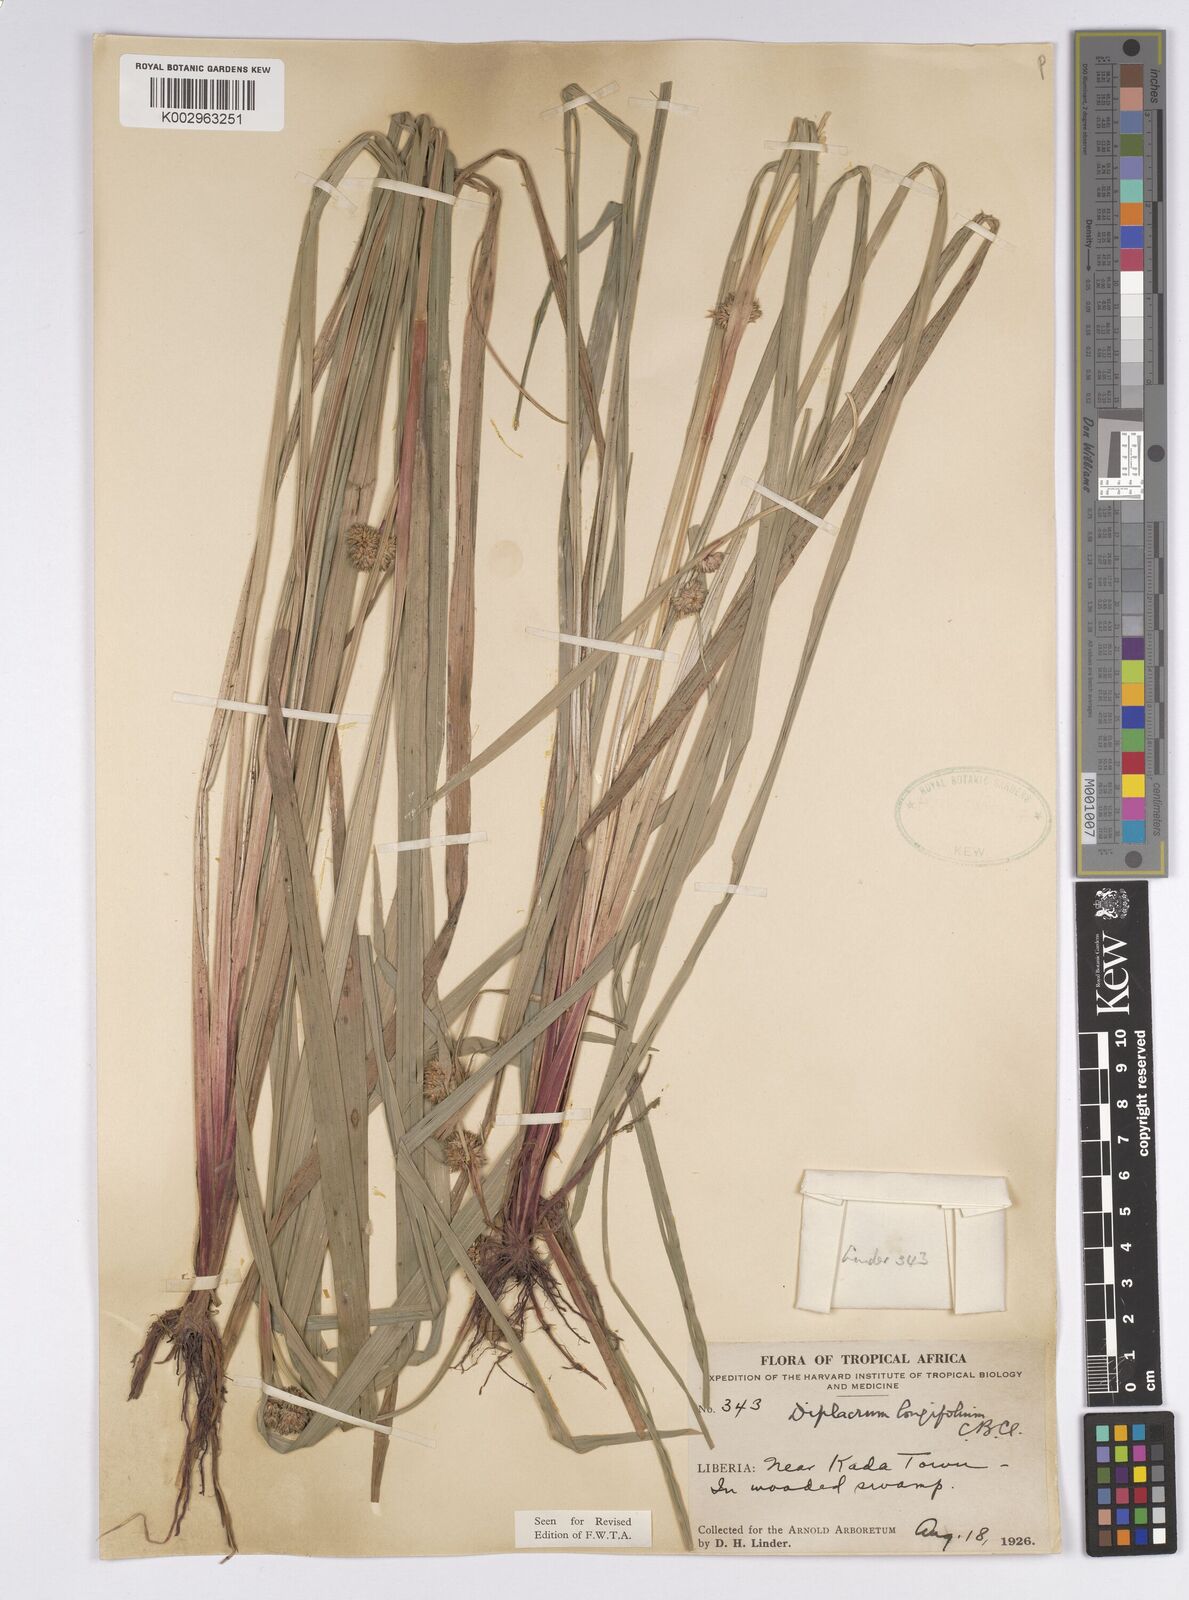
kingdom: Plantae
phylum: Tracheophyta
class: Liliopsida
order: Poales
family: Cyperaceae
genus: Diplacrum
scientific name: Diplacrum capitatum
